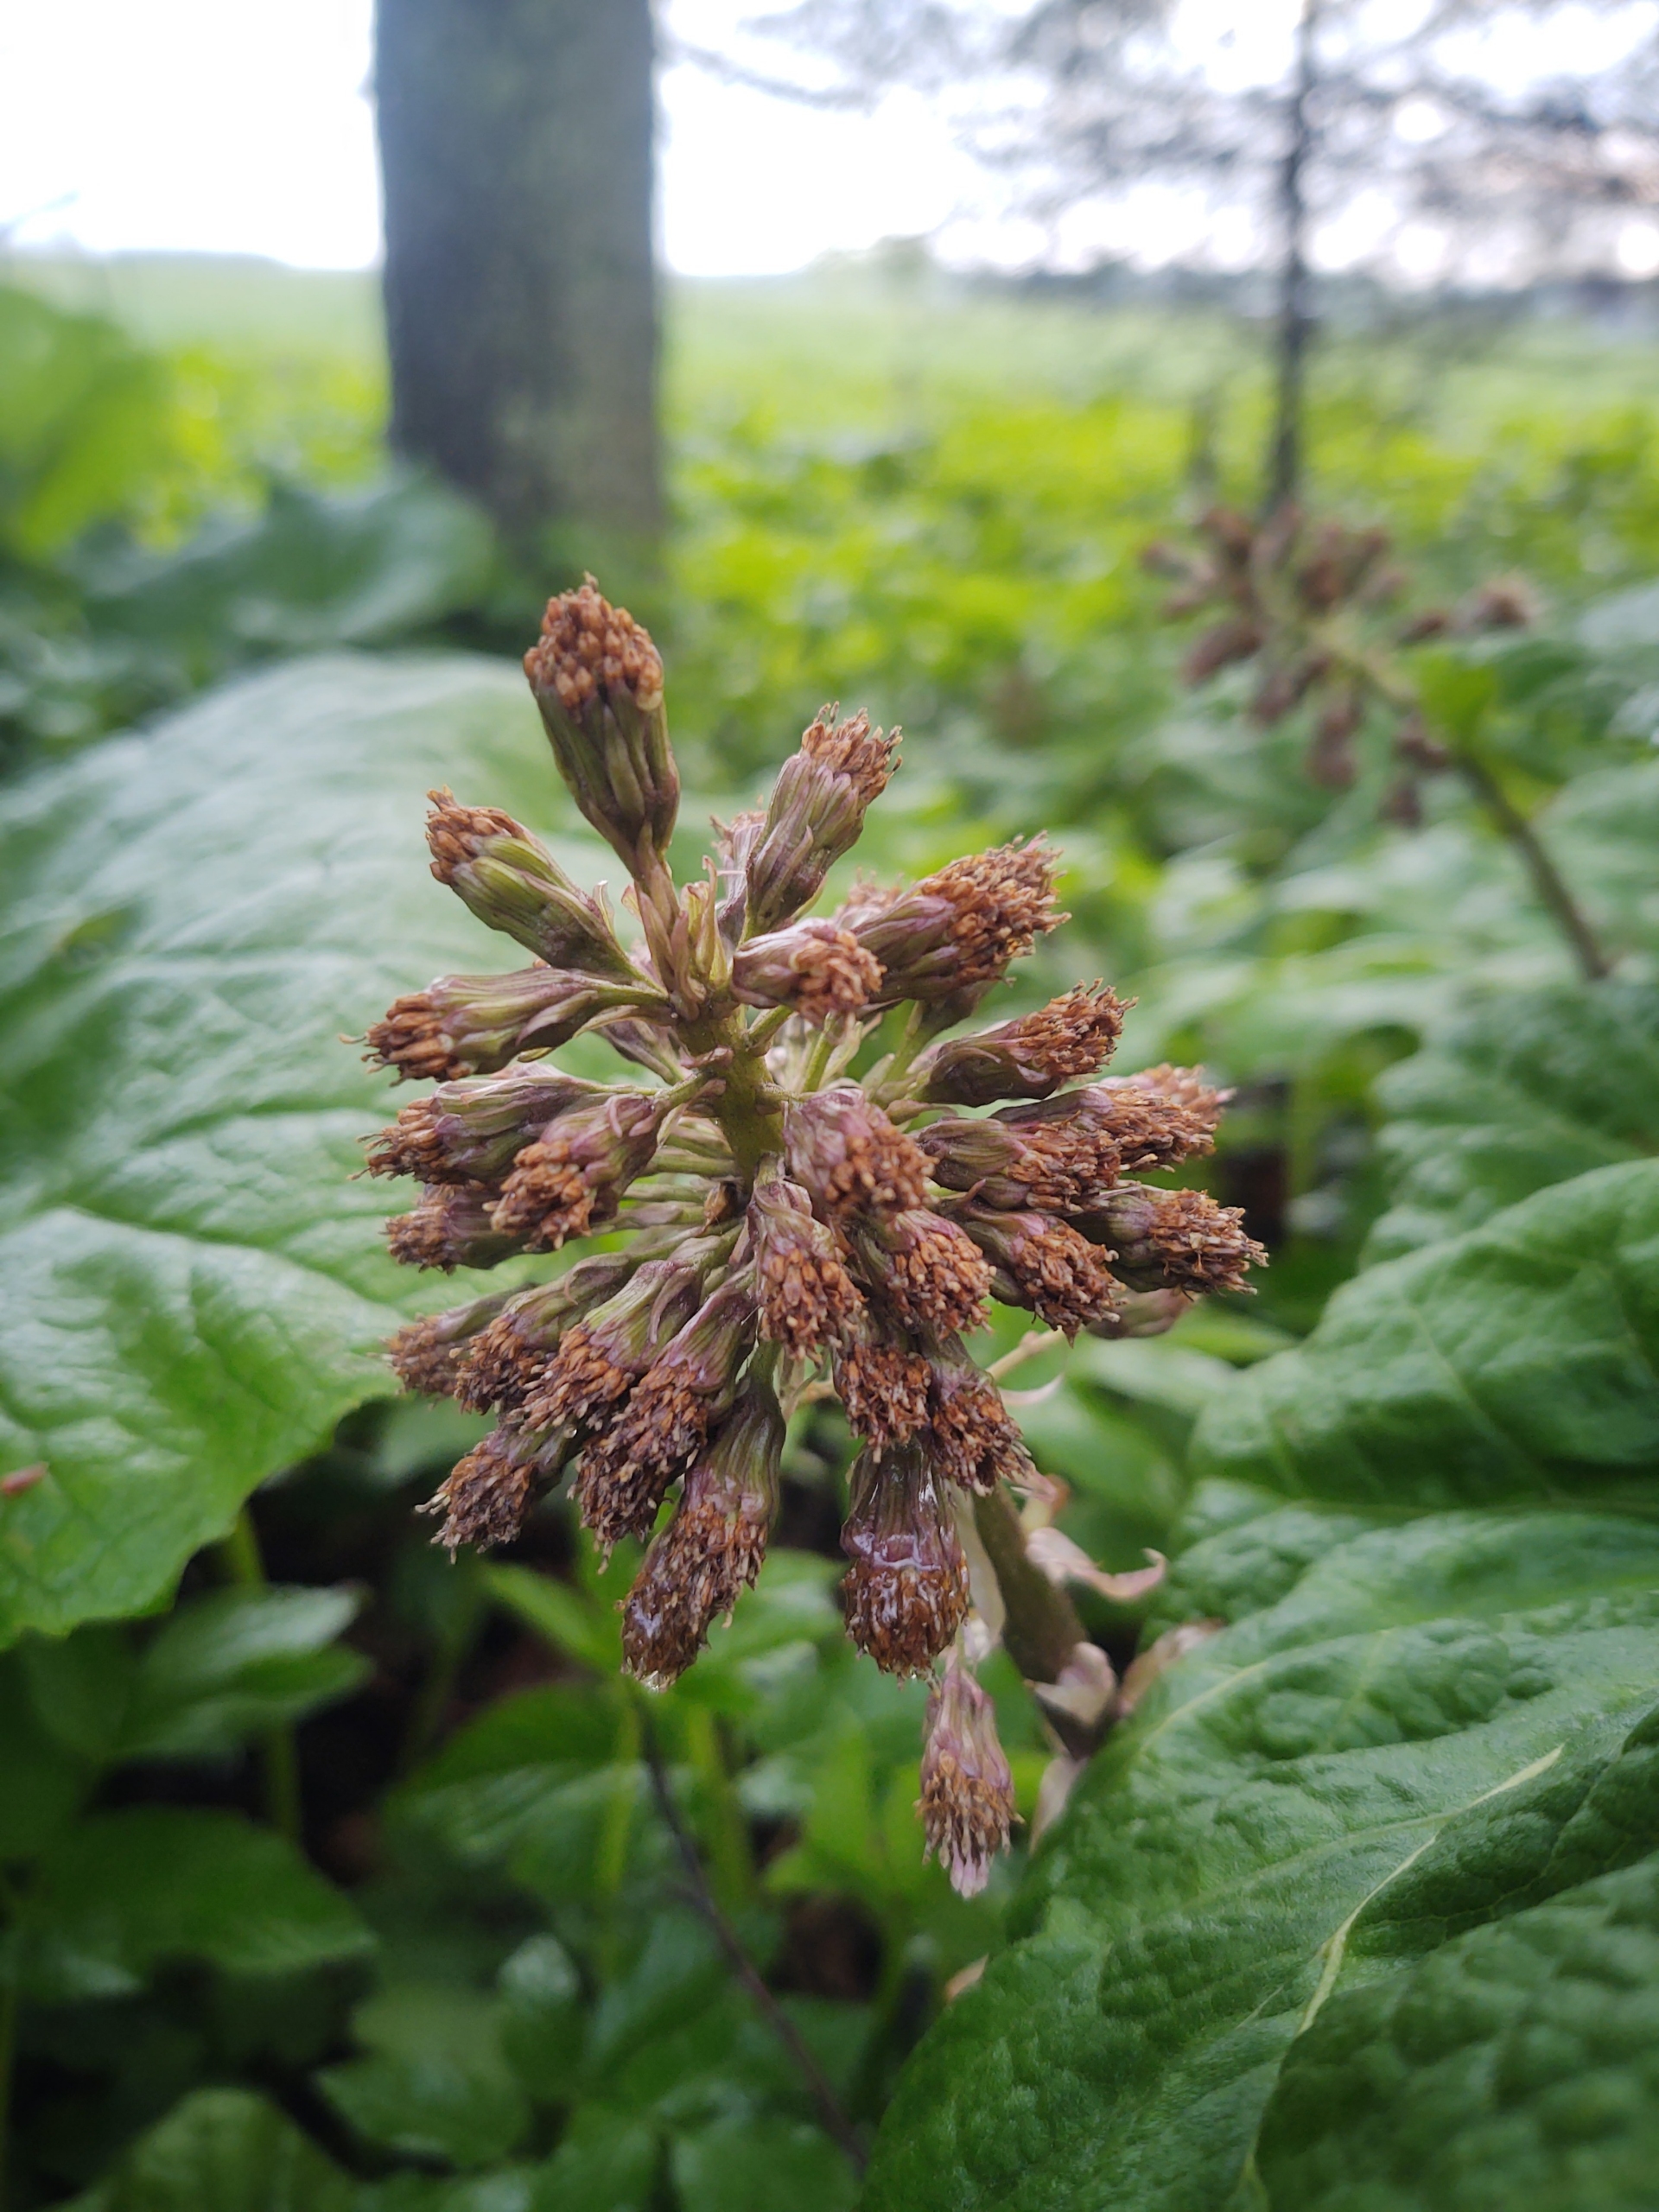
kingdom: Plantae
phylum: Tracheophyta
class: Magnoliopsida
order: Asterales
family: Asteraceae
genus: Petasites
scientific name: Petasites hybridus
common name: Rød hestehov
